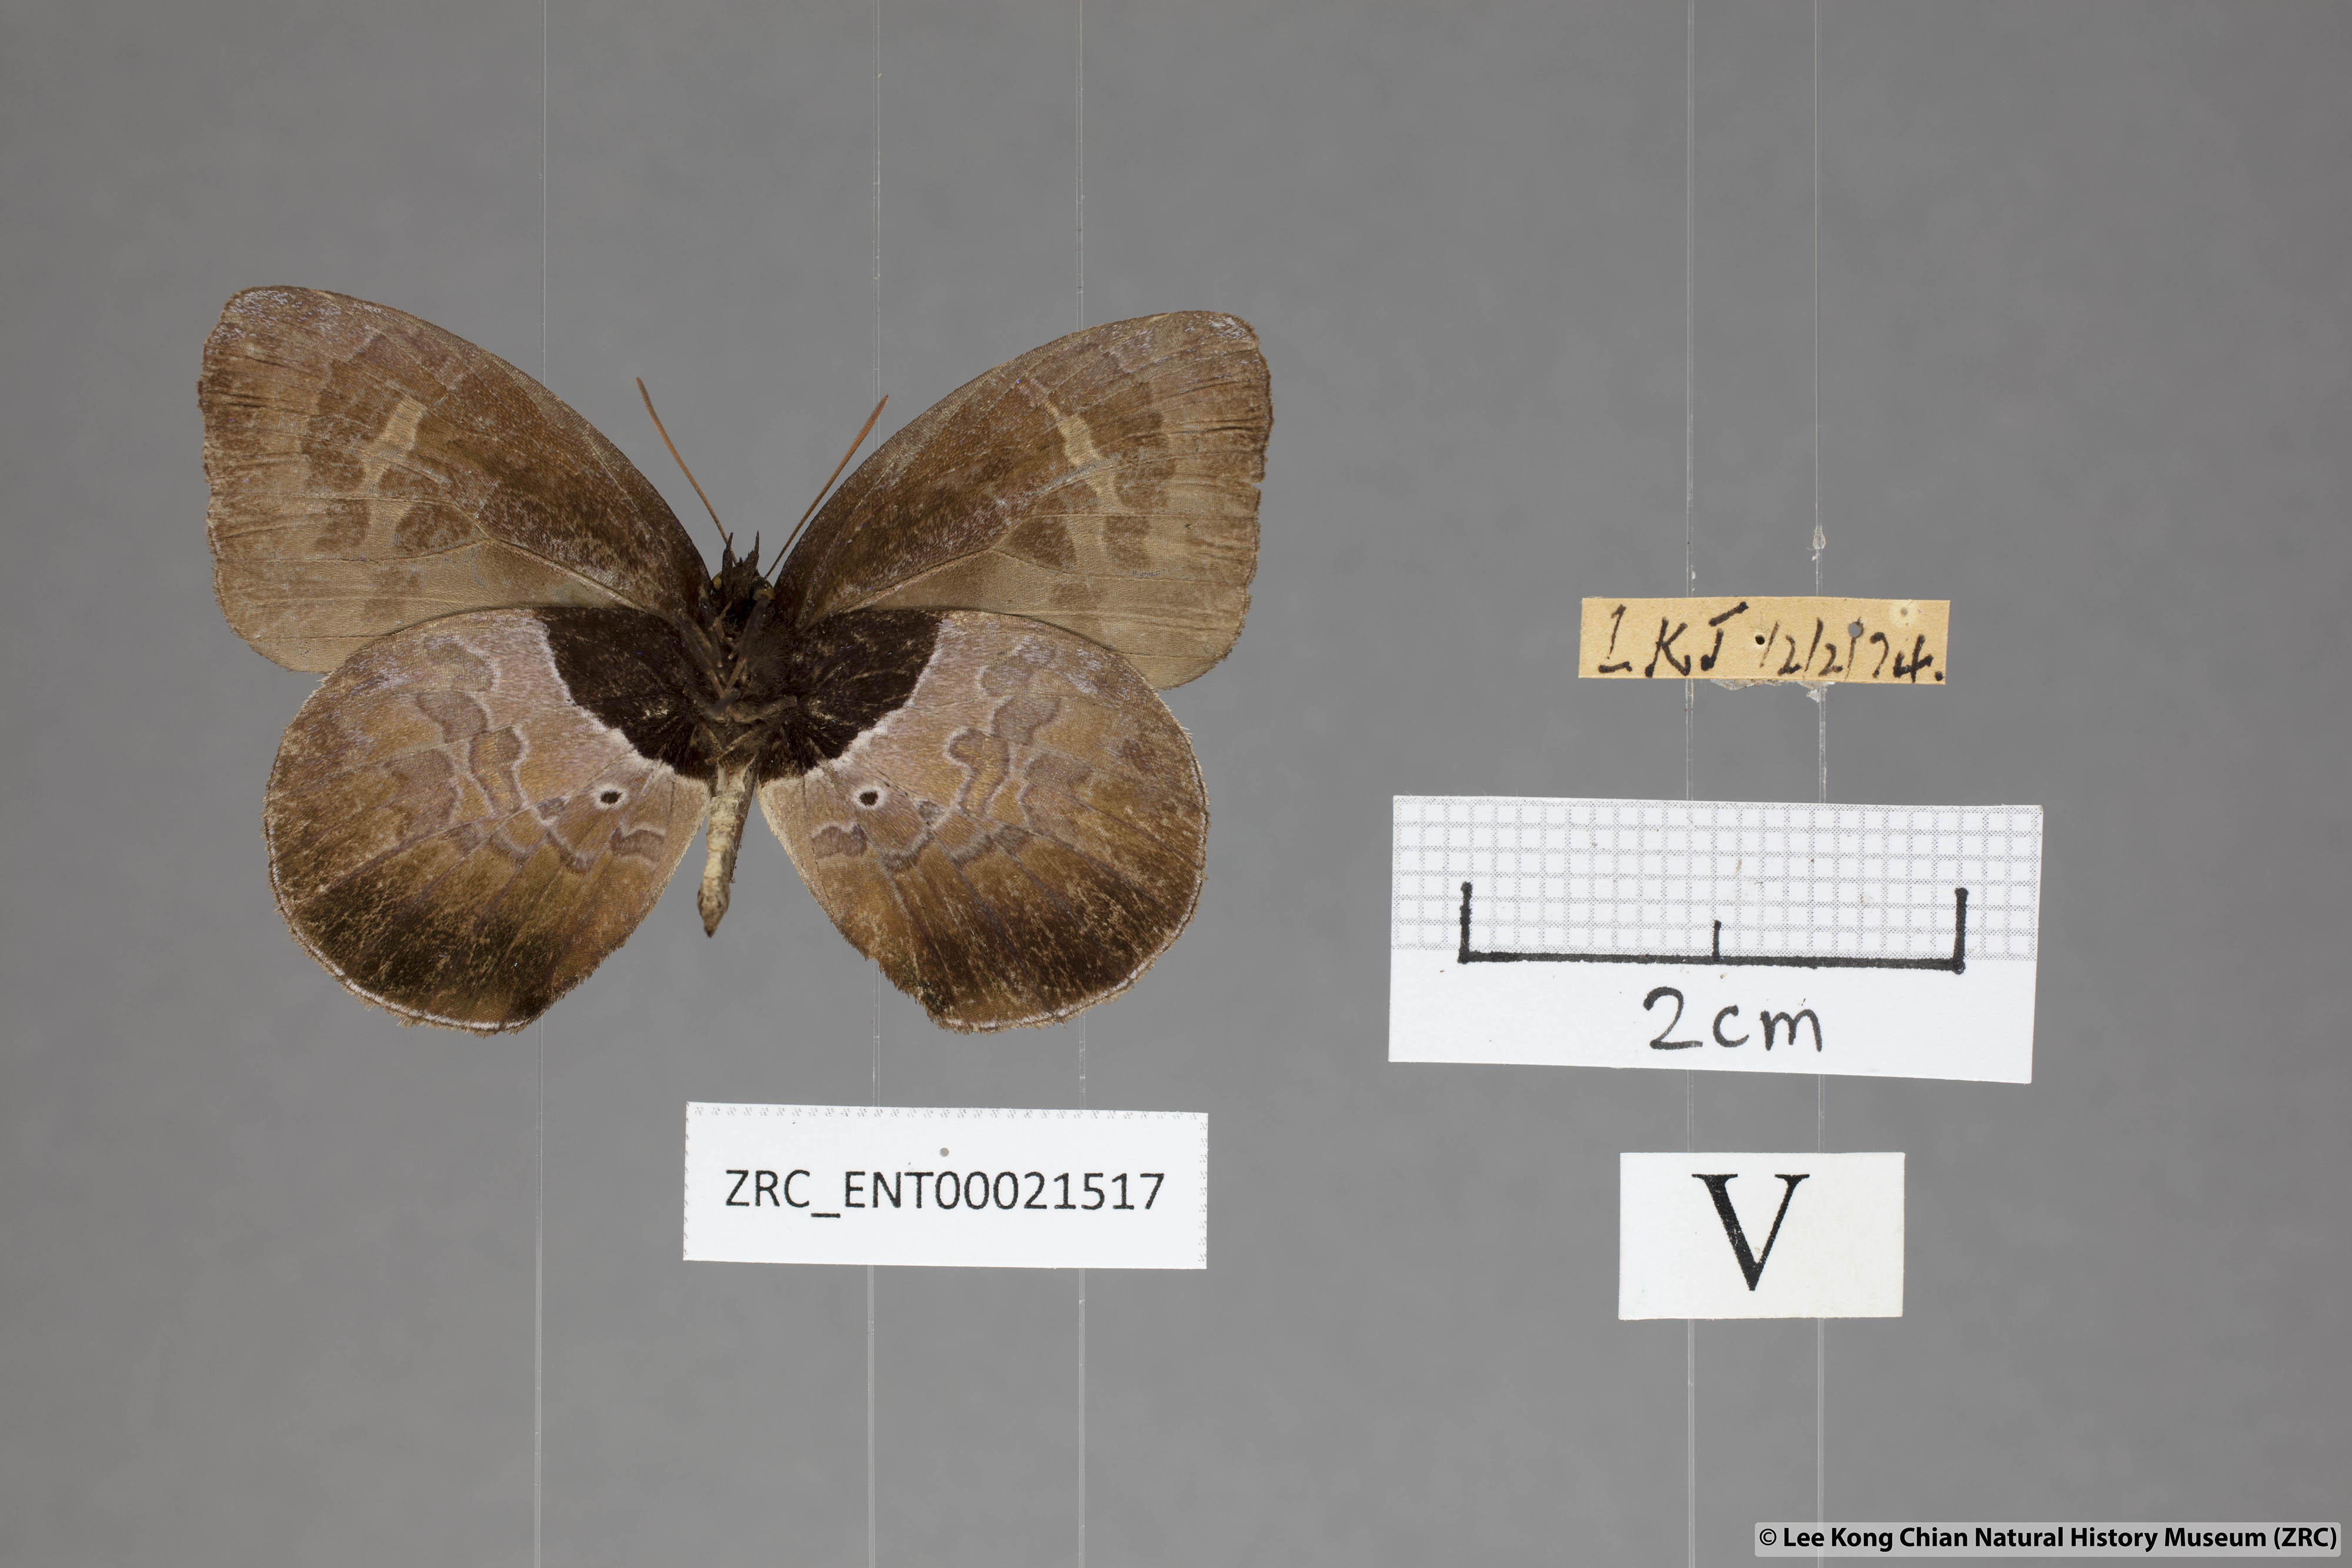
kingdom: Animalia
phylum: Arthropoda
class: Insecta
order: Lepidoptera
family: Lycaenidae
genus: Flos
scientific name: Flos
